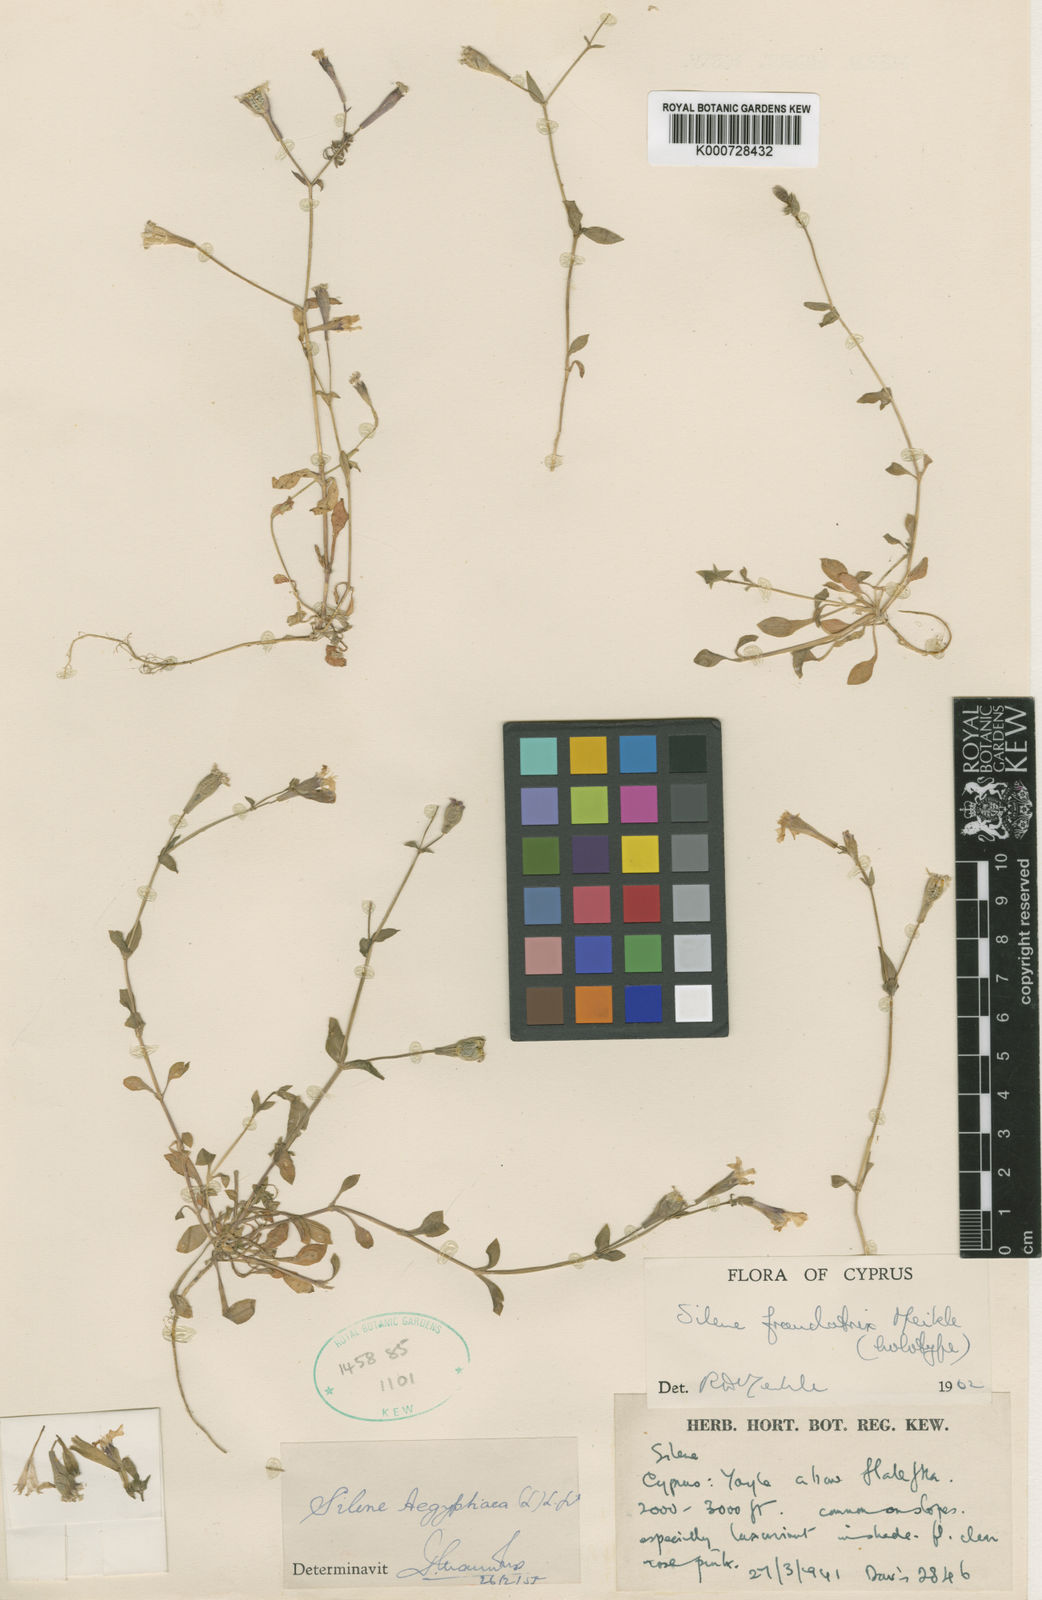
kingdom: Plantae
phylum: Tracheophyta
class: Magnoliopsida
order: Caryophyllales
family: Caryophyllaceae
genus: Silene
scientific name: Silene fraudatrix
